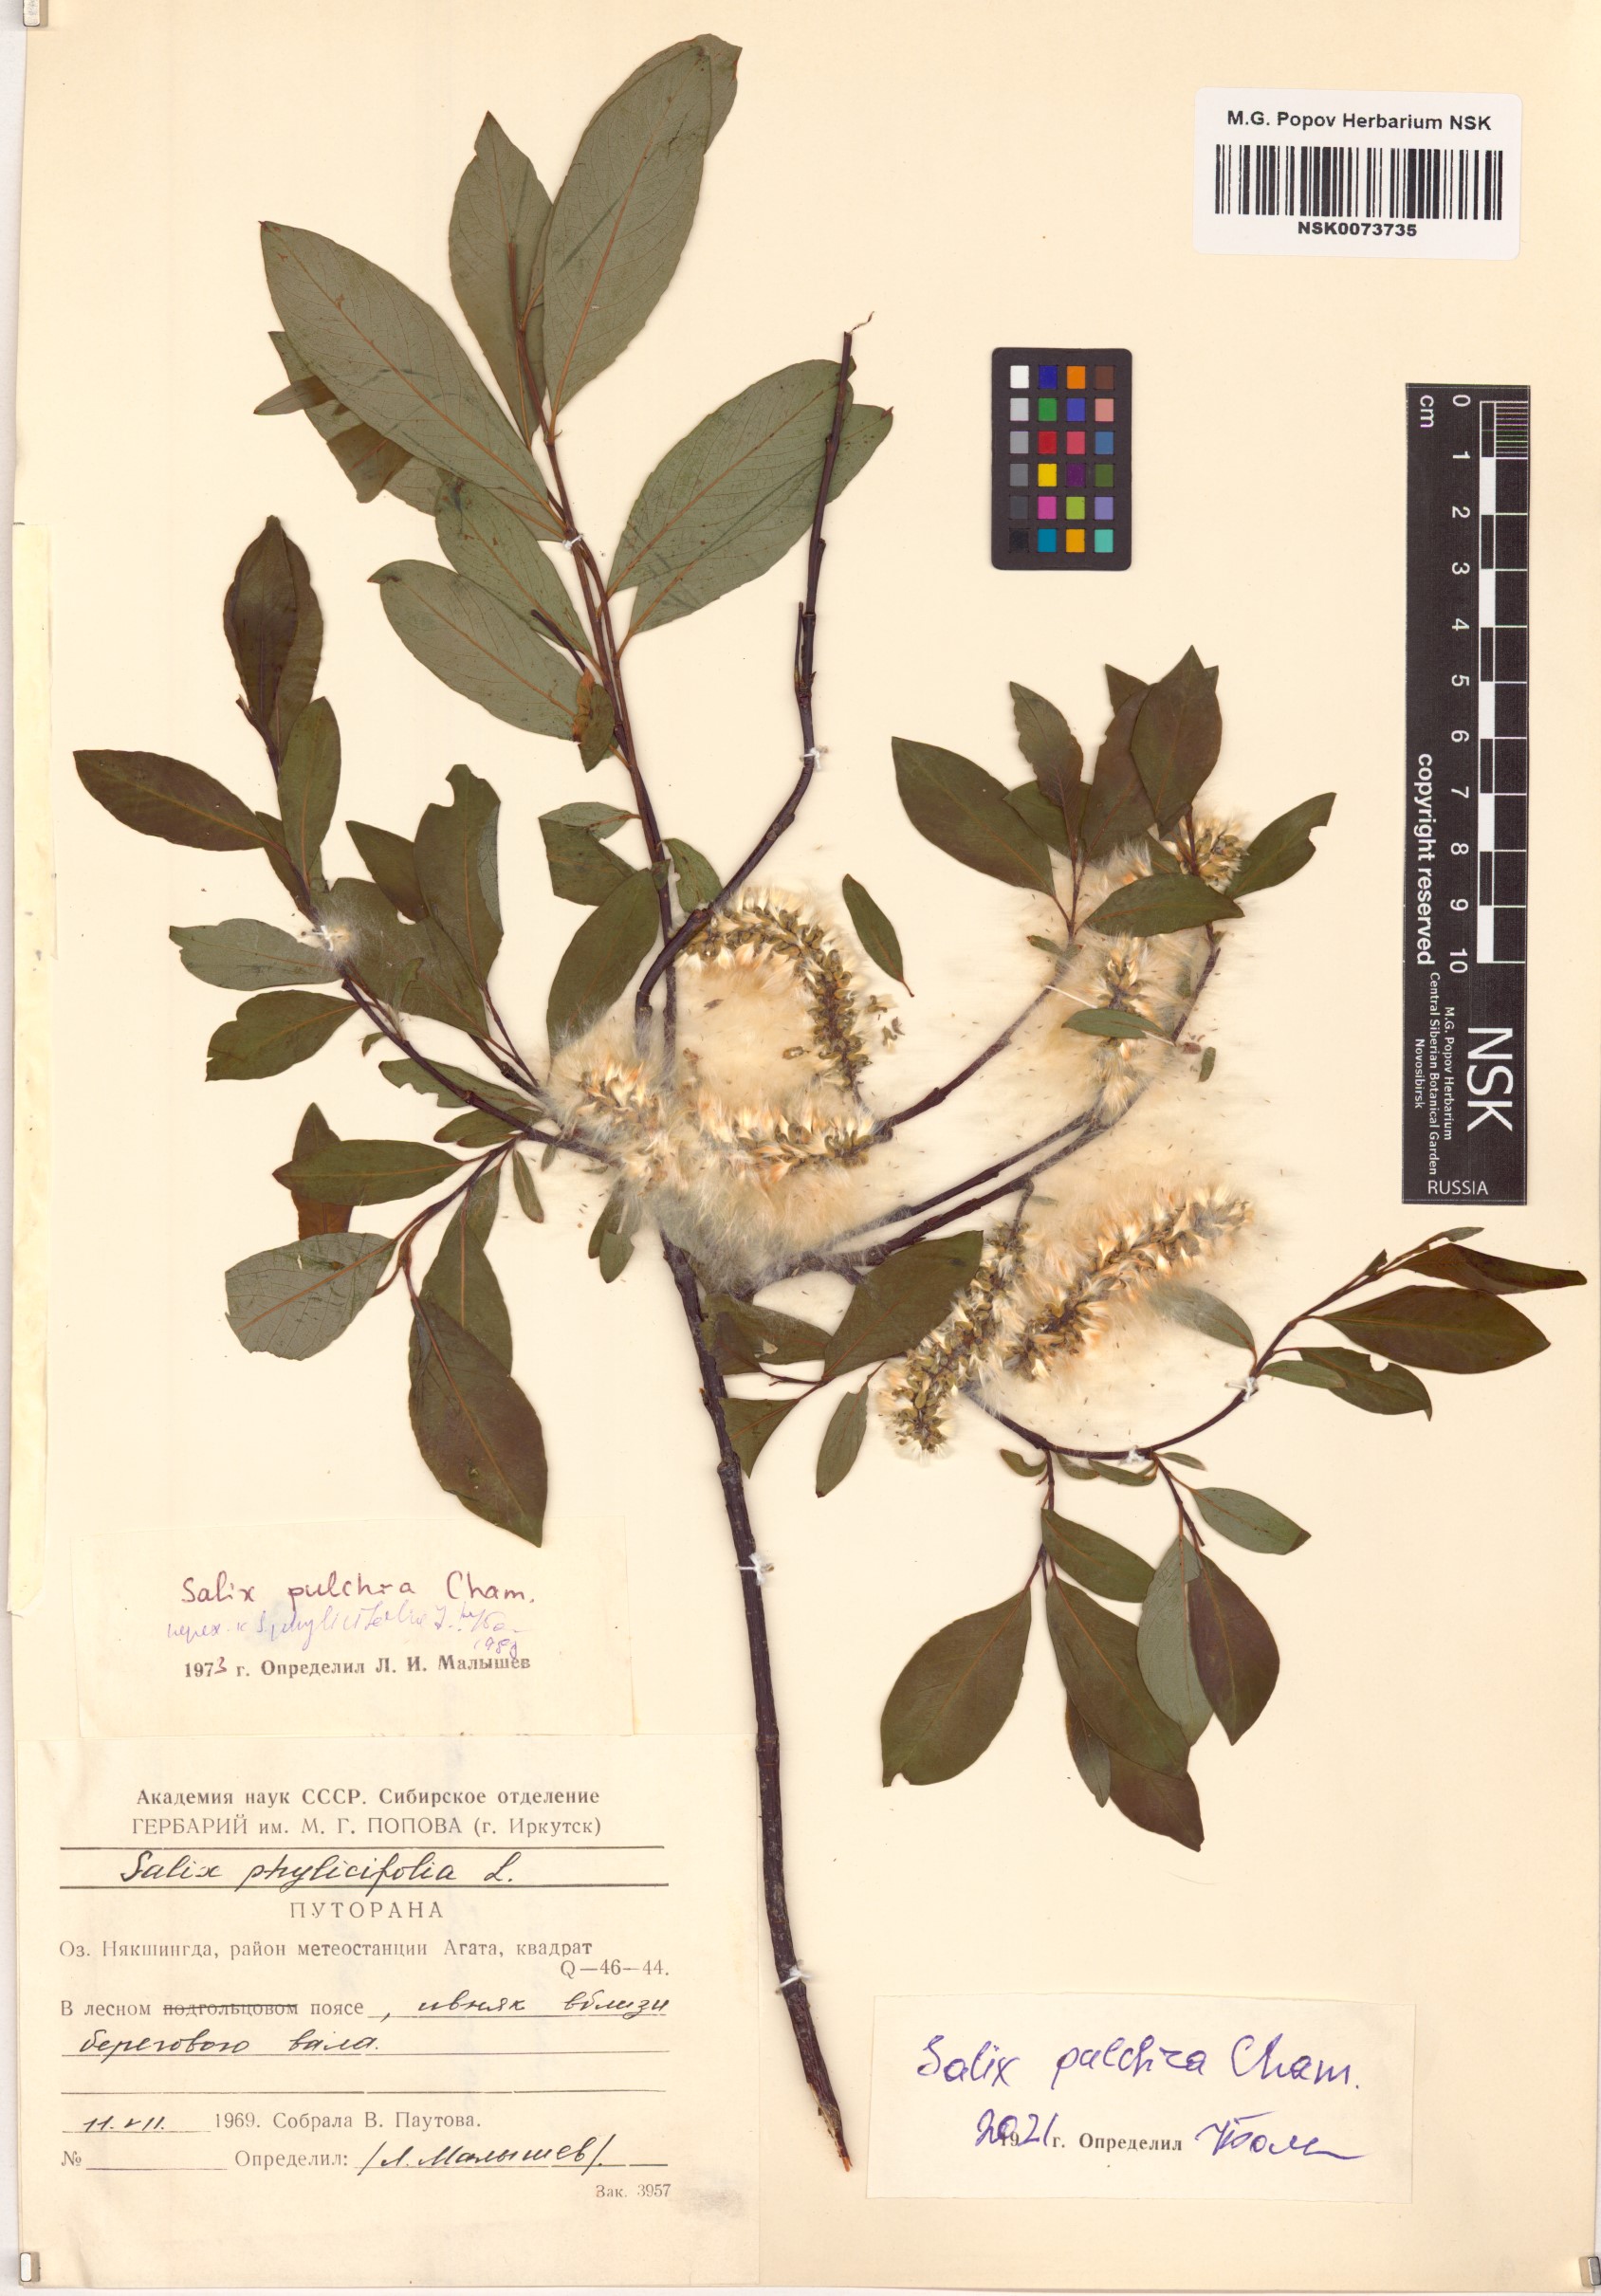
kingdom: Plantae
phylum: Tracheophyta
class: Magnoliopsida
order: Malpighiales
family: Salicaceae
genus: Salix
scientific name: Salix pulchra
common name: Diamond-leaved willow
